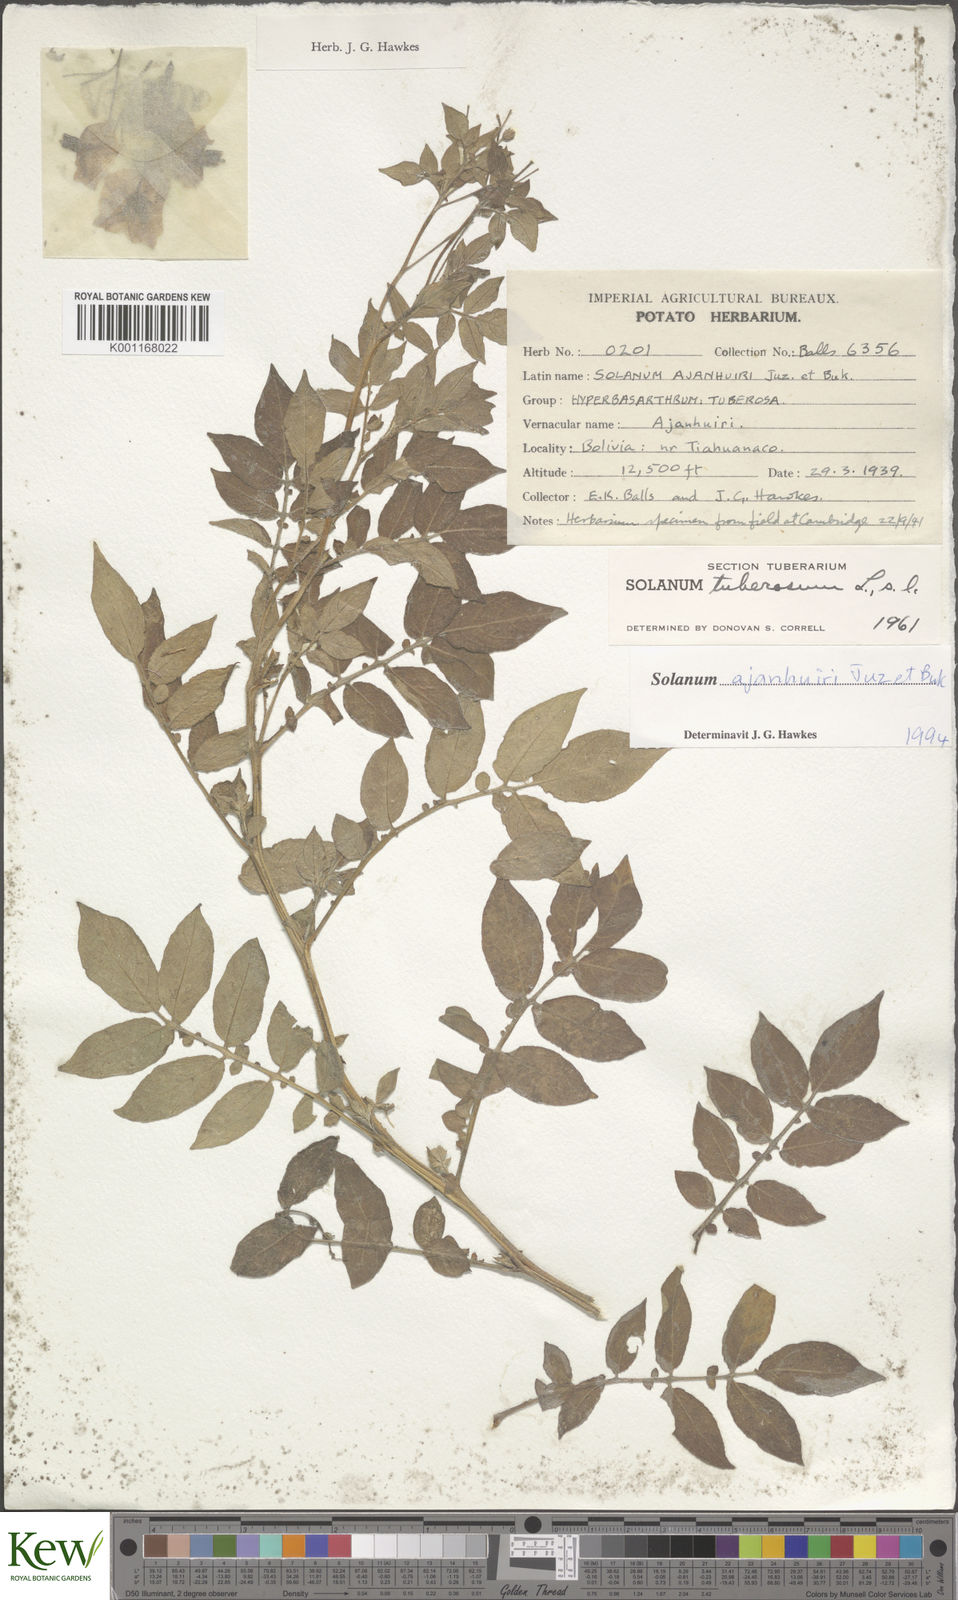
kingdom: Plantae
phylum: Tracheophyta
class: Magnoliopsida
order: Solanales
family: Solanaceae
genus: Solanum
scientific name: Solanum ajanhuiri
